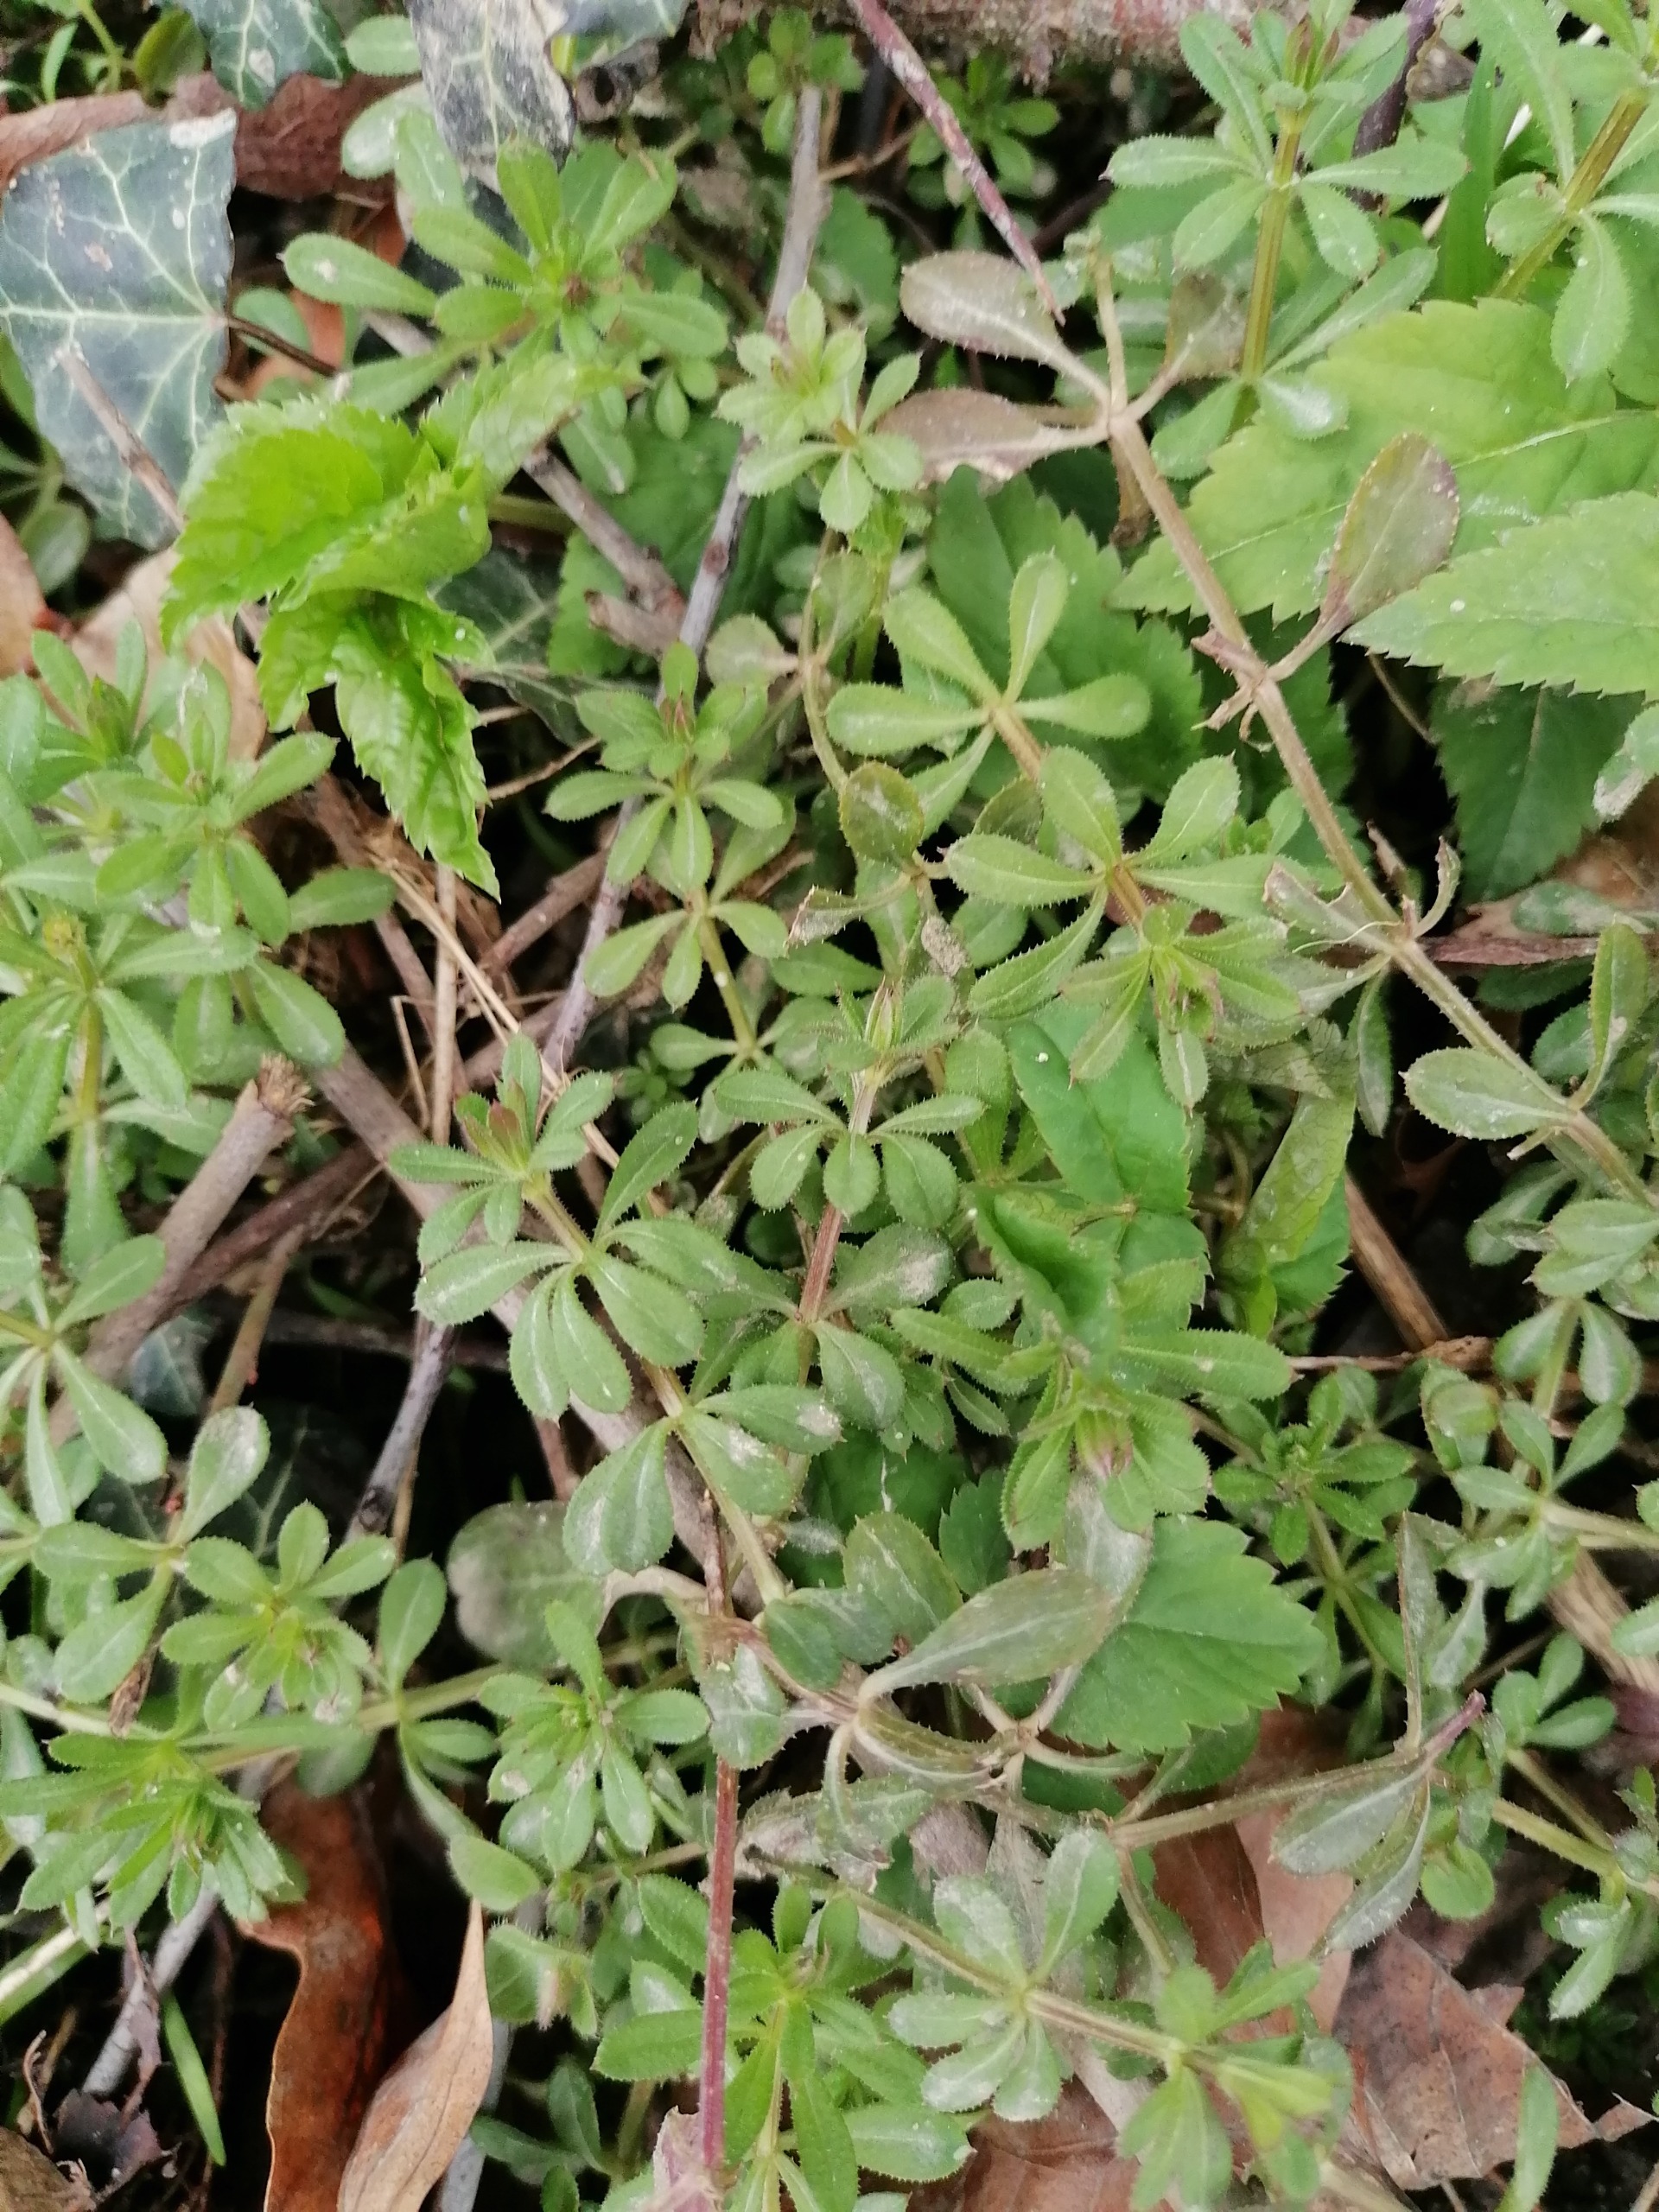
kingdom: Plantae
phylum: Tracheophyta
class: Magnoliopsida
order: Gentianales
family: Rubiaceae
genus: Galium
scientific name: Galium aparine
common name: Burre-snerre
